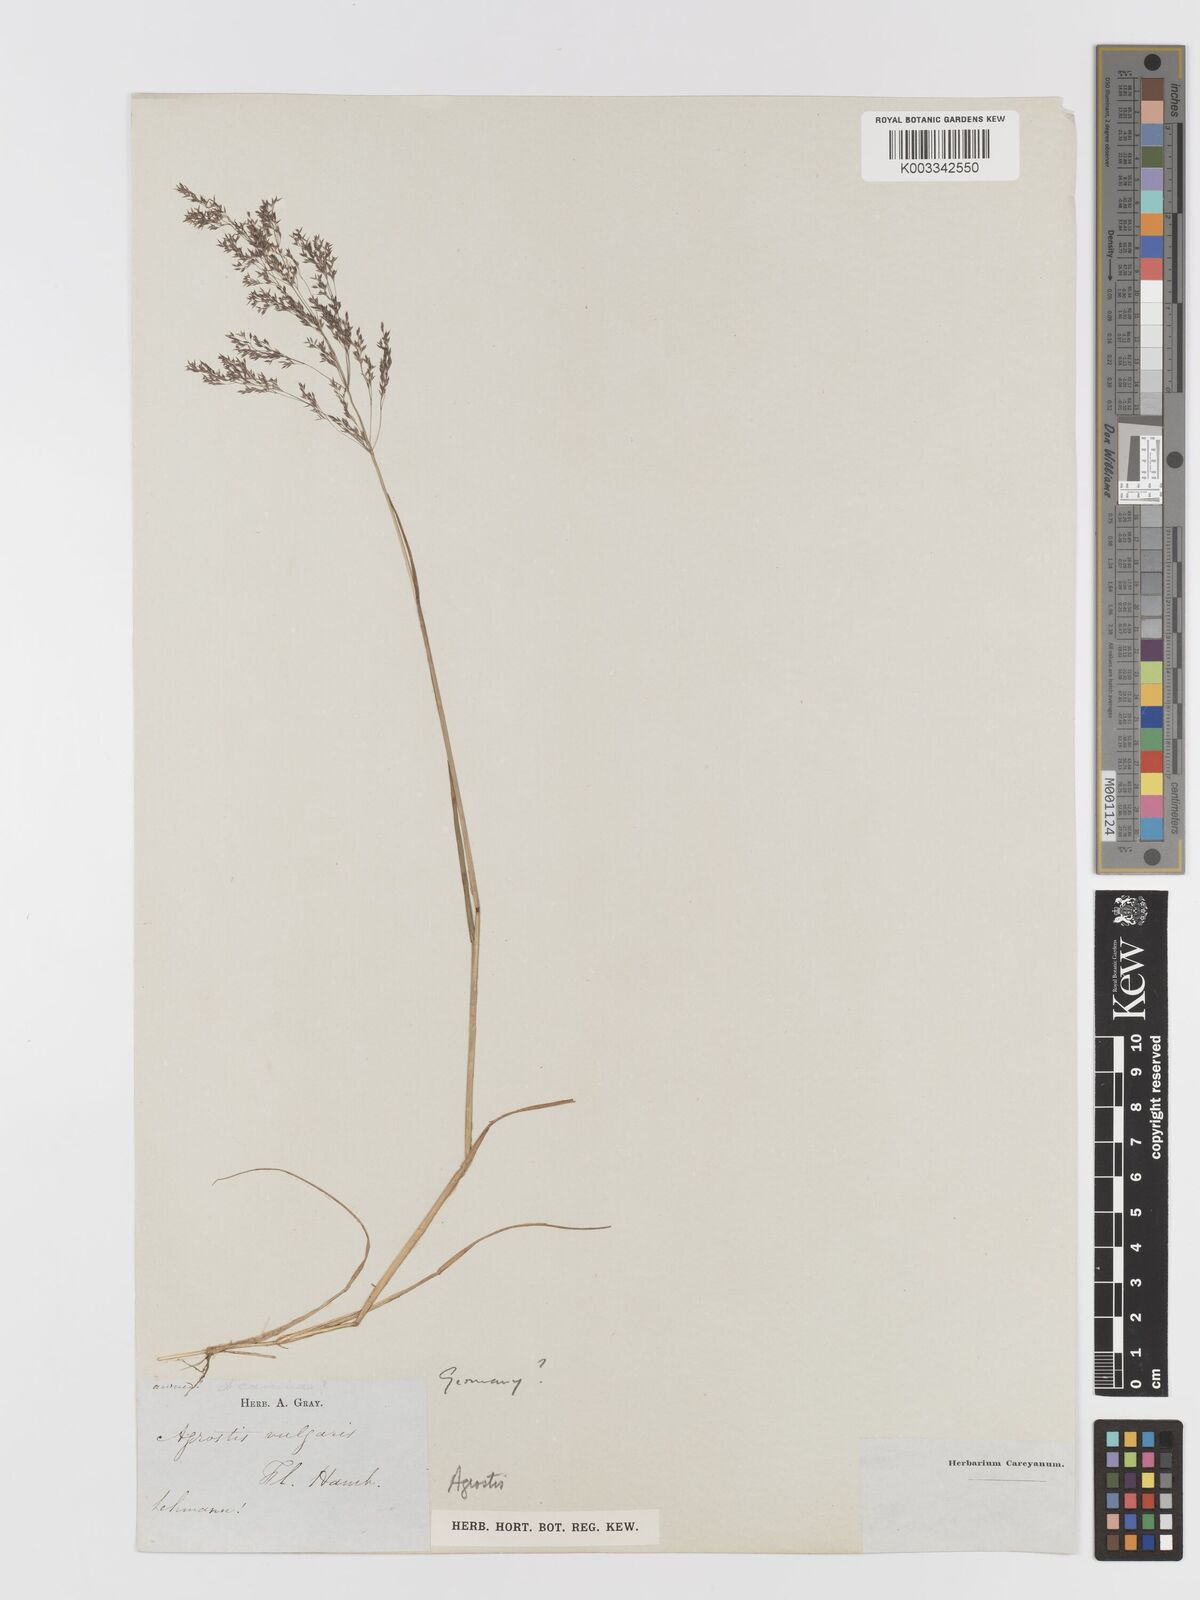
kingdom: Plantae
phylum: Tracheophyta
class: Liliopsida
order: Poales
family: Poaceae
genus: Agrostis
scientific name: Agrostis
